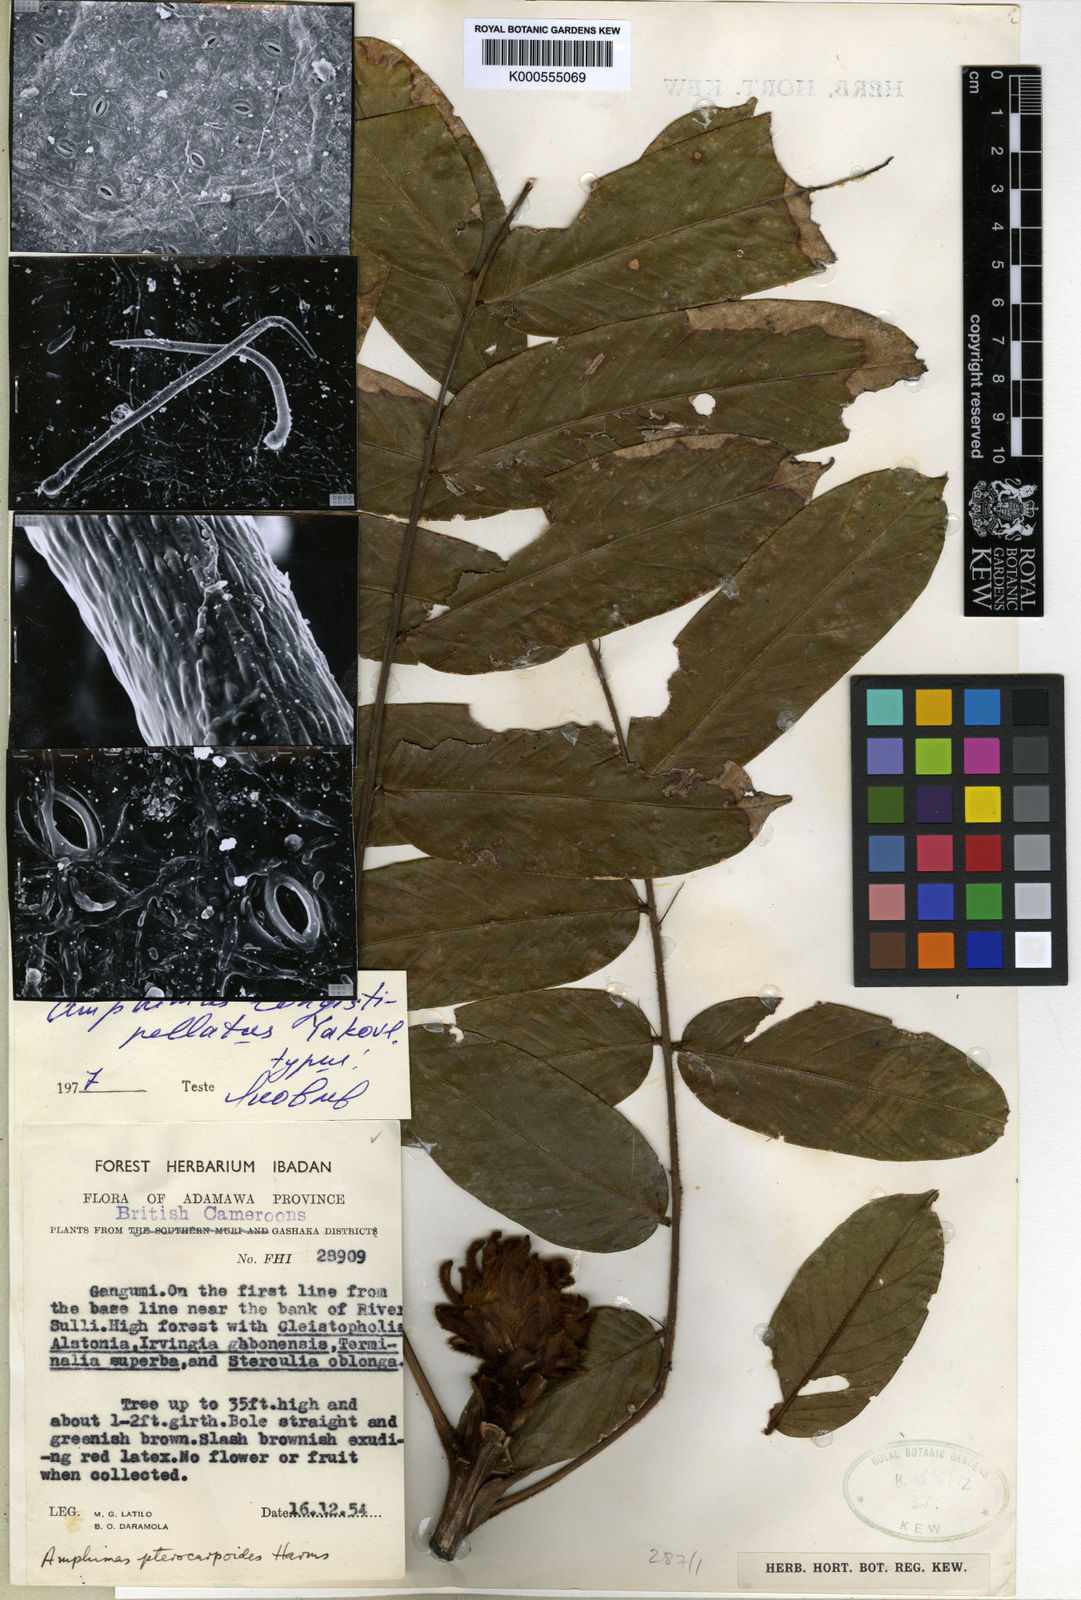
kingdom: Plantae
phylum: Tracheophyta
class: Magnoliopsida
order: Fabales
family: Fabaceae
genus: Amphimas
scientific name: Amphimas
